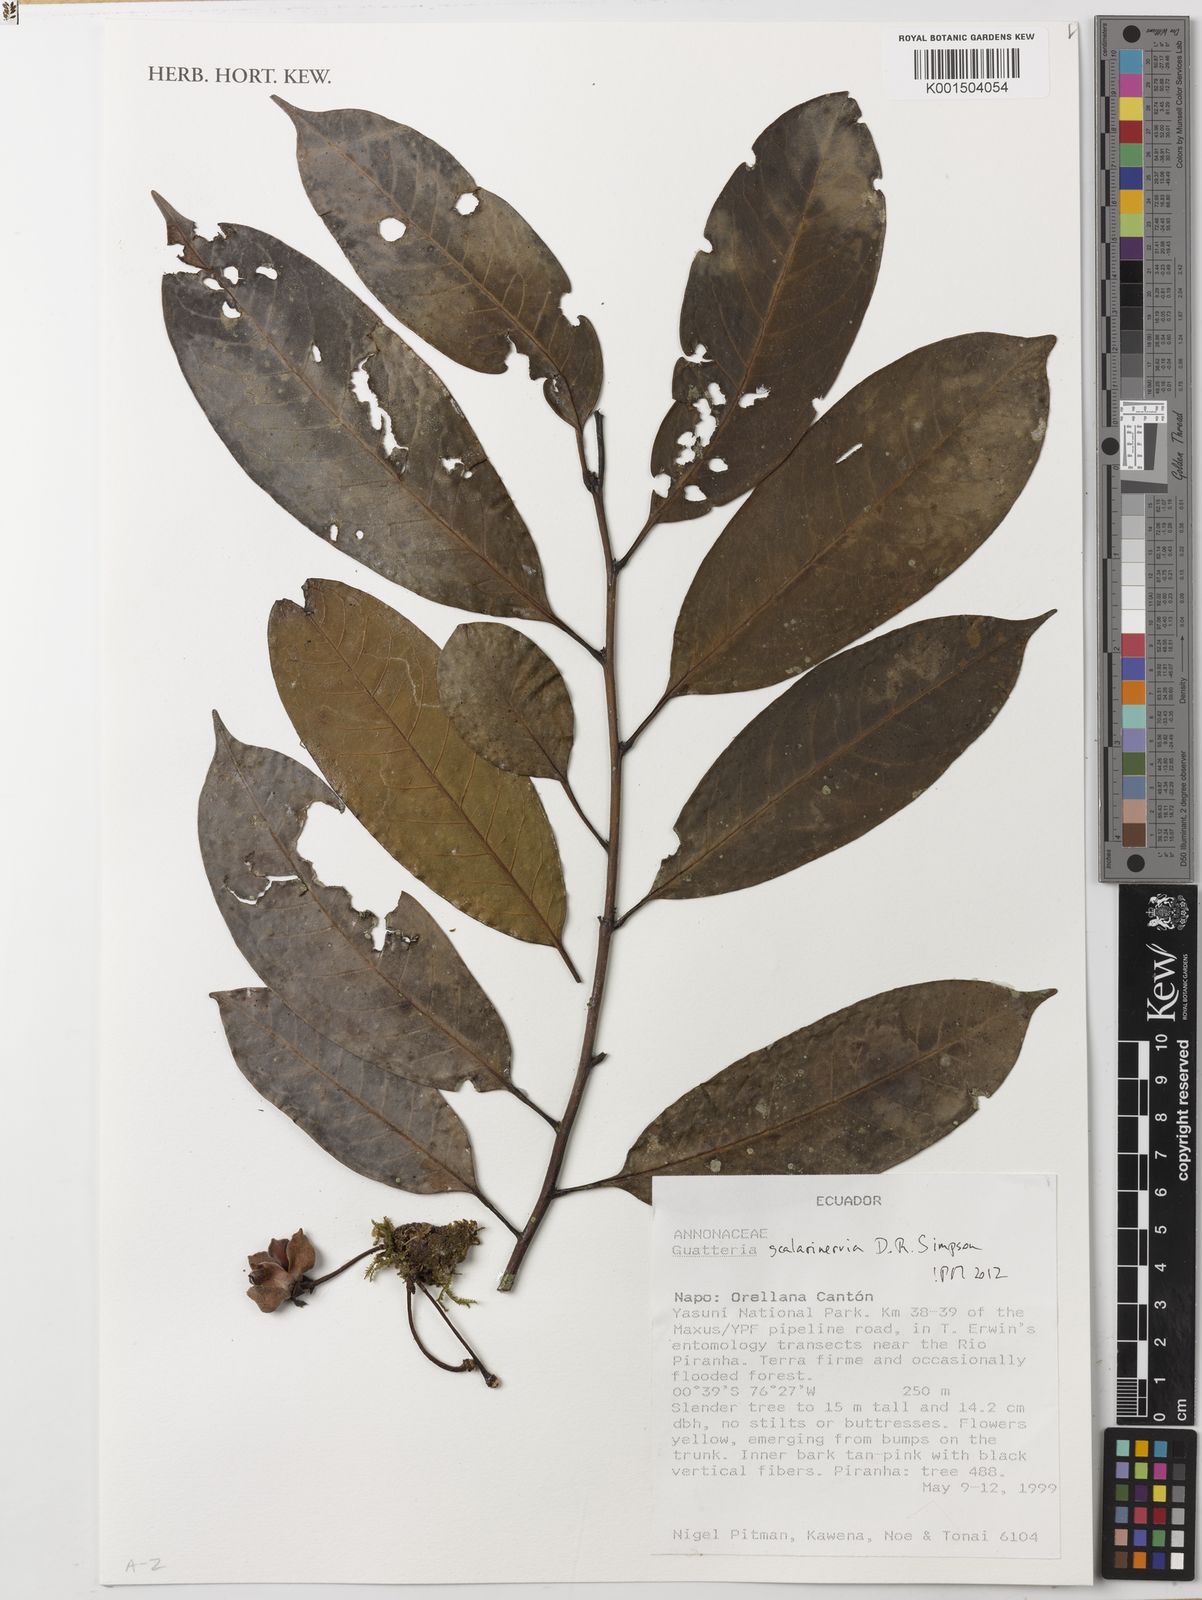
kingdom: Plantae
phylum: Tracheophyta
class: Magnoliopsida
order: Magnoliales
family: Annonaceae
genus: Guatteria
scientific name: Guatteria scalarinervia
